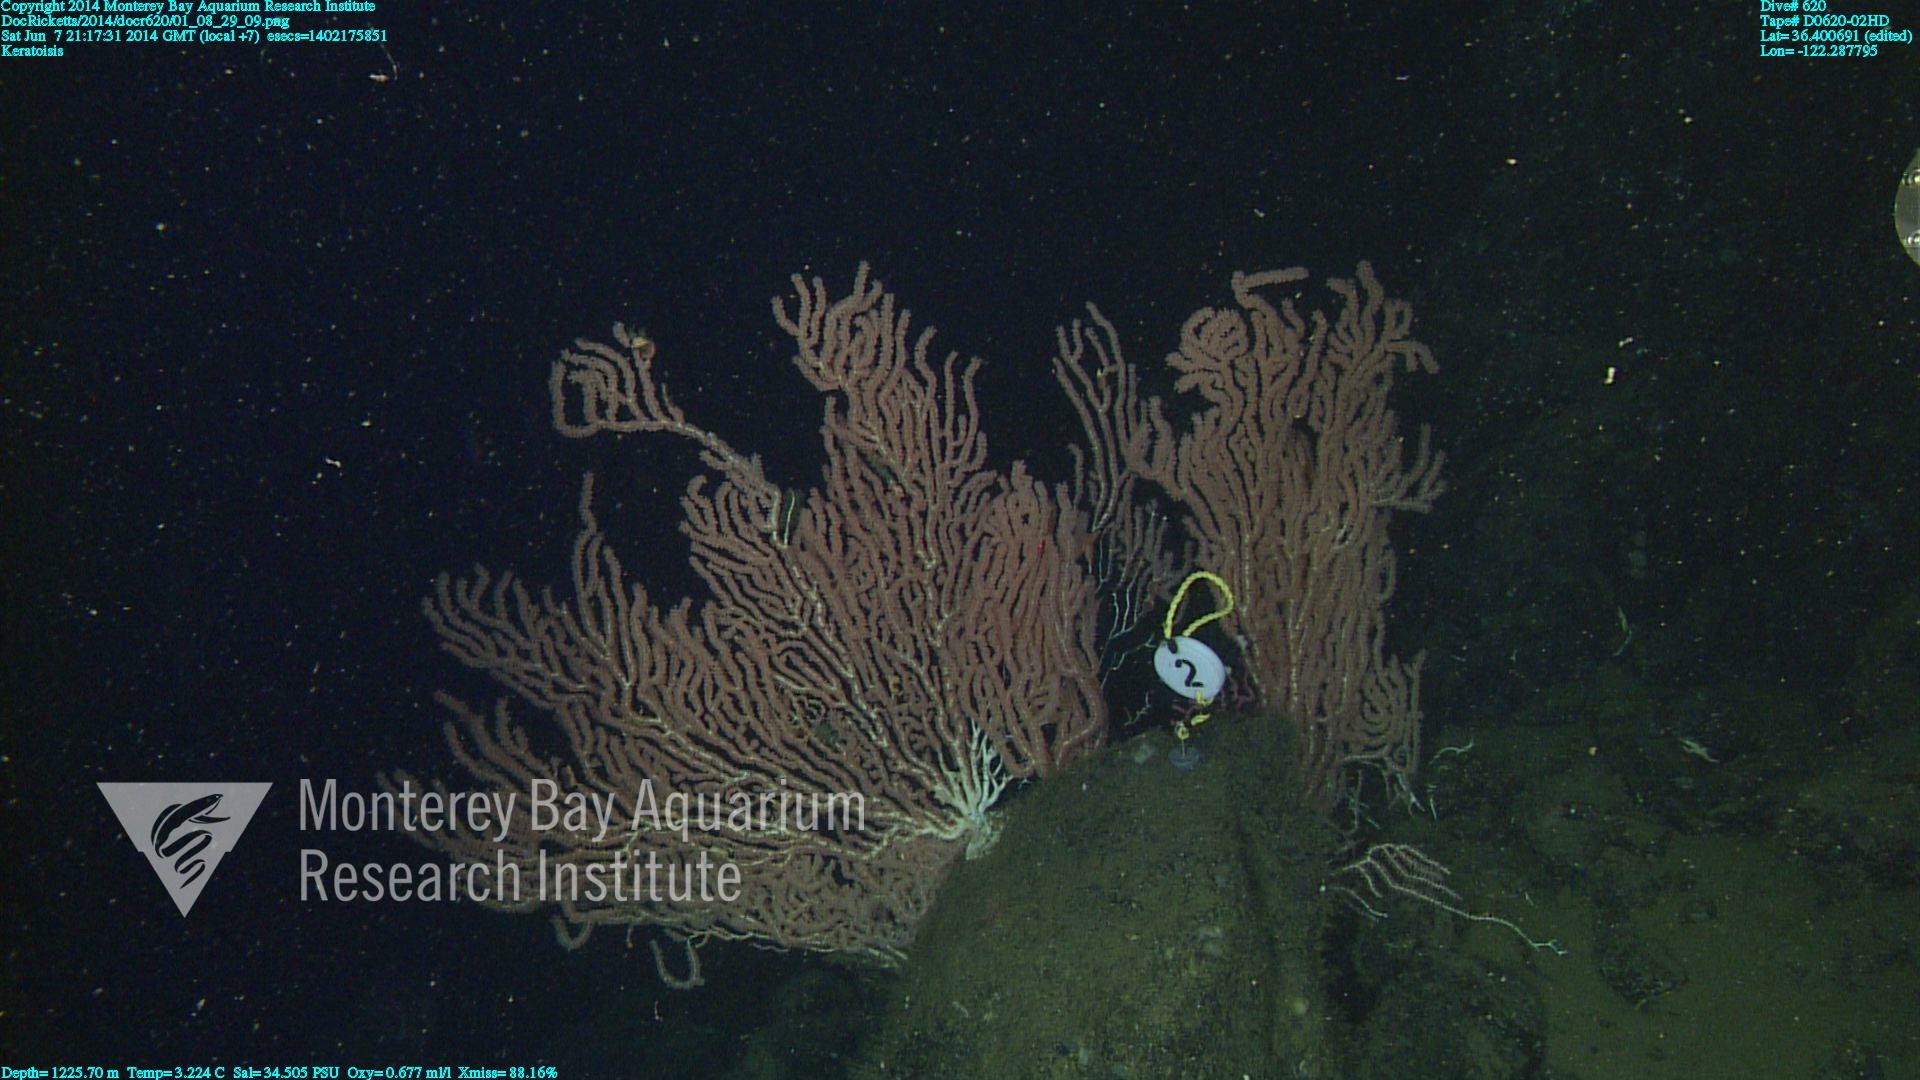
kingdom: Animalia
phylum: Cnidaria
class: Anthozoa
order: Scleralcyonacea
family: Keratoisididae
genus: Keratoisis
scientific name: Keratoisis
